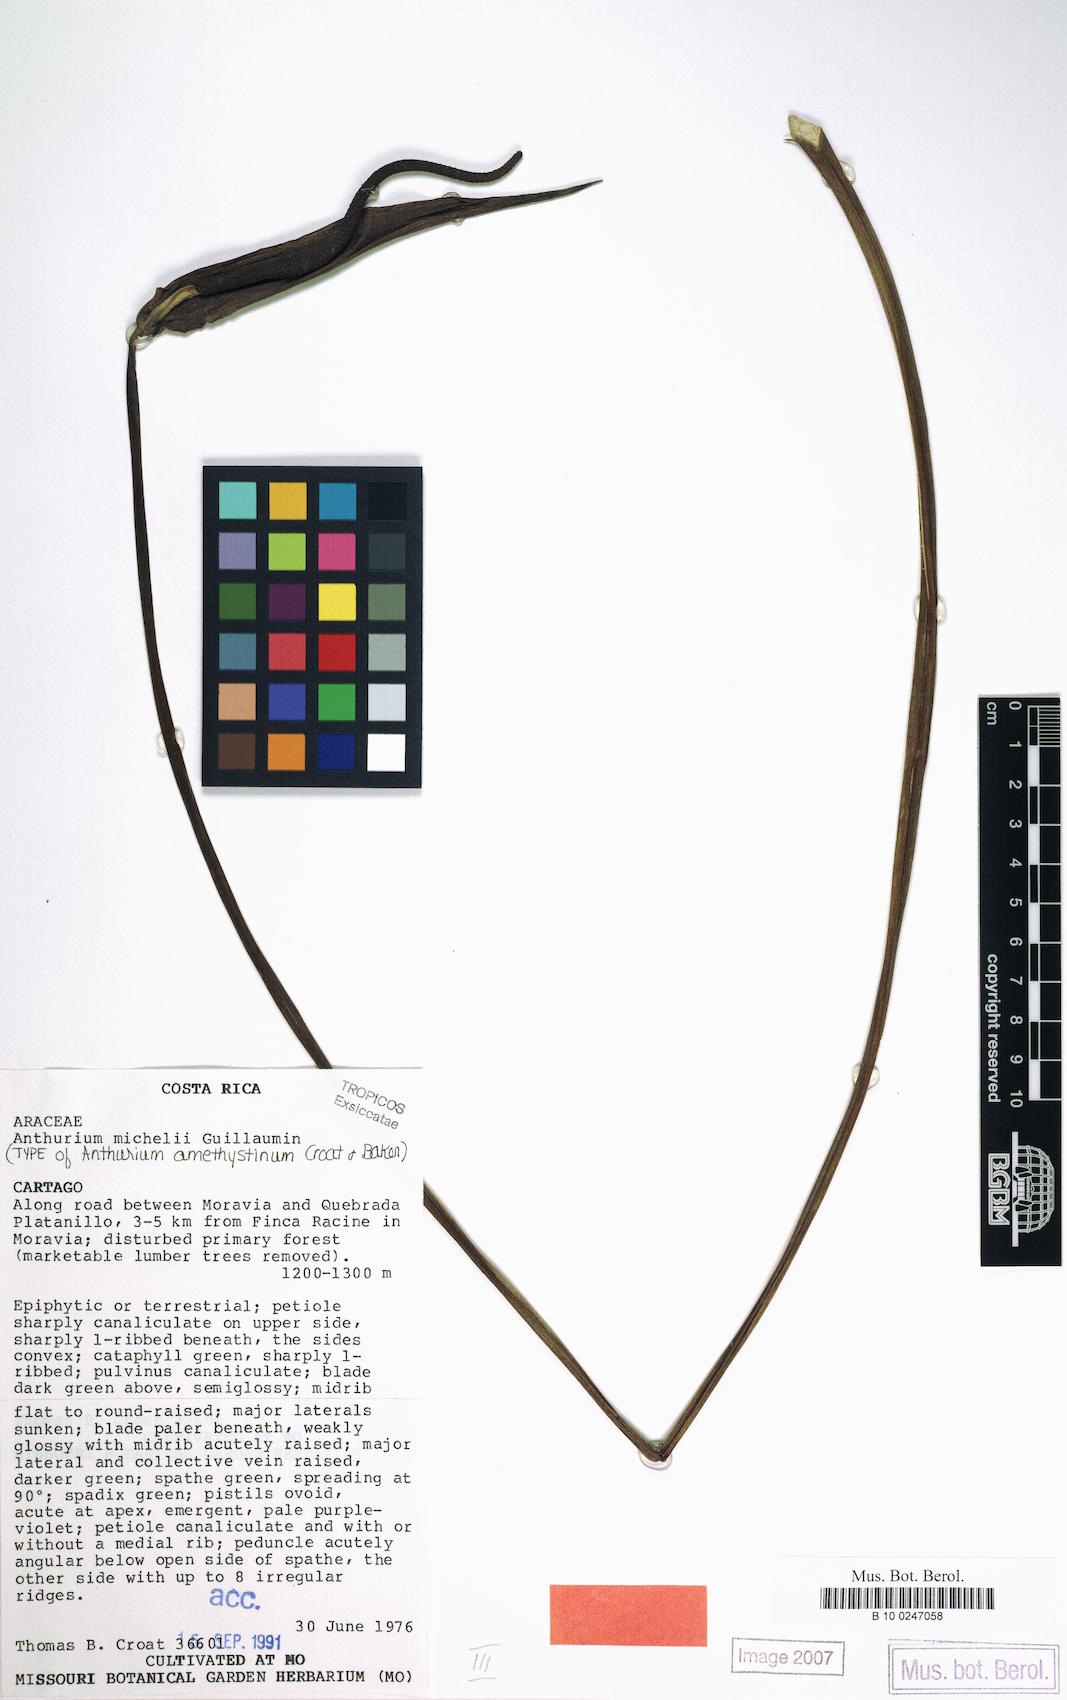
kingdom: Plantae
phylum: Tracheophyta
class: Liliopsida
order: Alismatales
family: Araceae
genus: Anthurium
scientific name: Anthurium michelii
